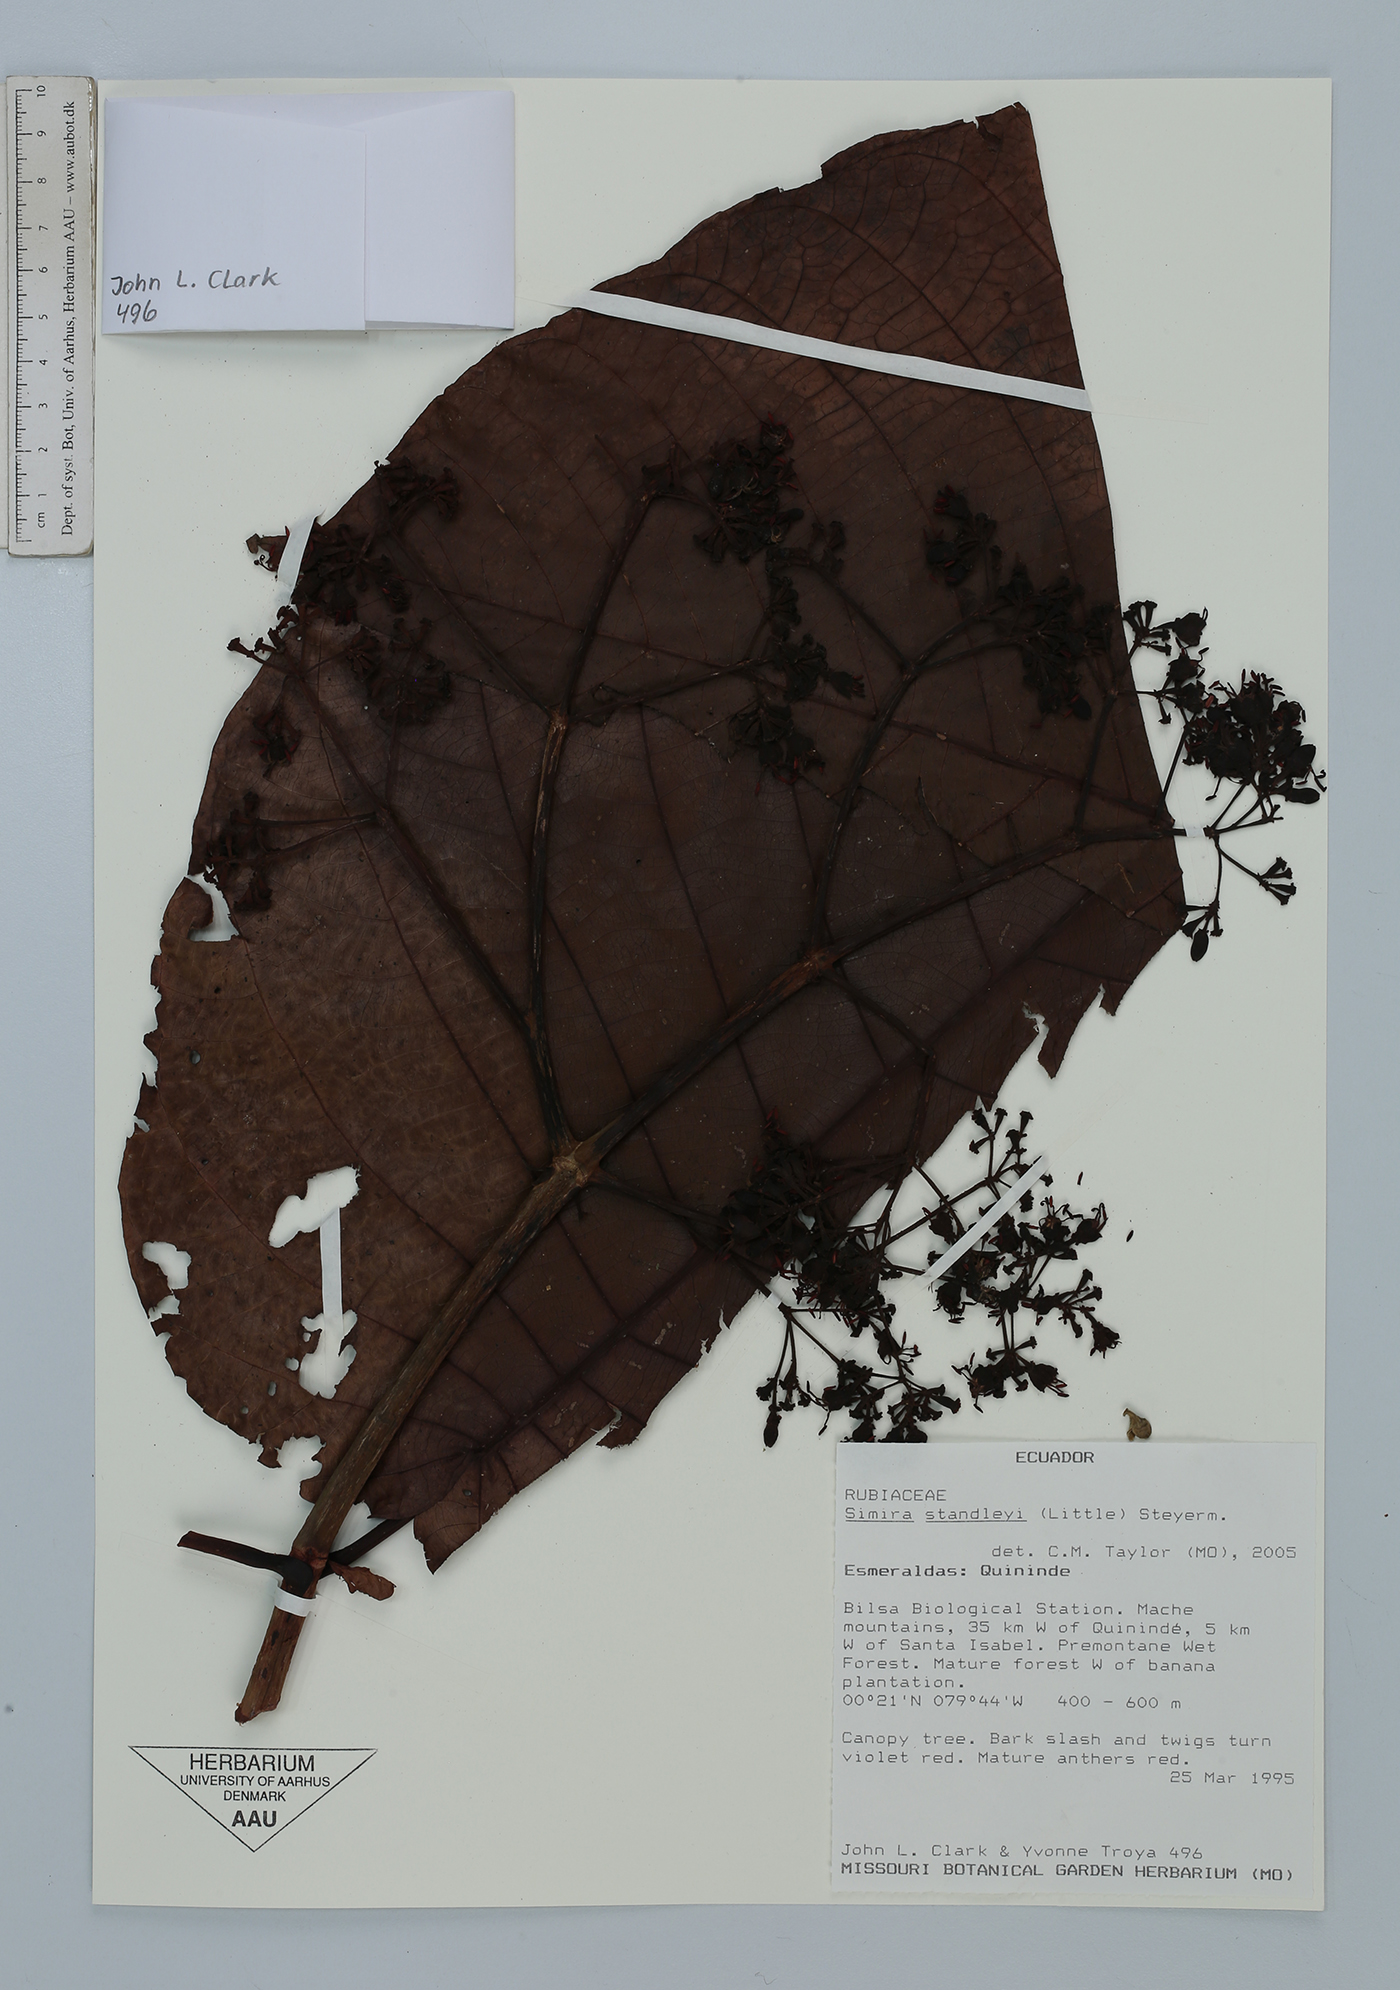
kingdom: Plantae
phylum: Tracheophyta
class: Magnoliopsida
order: Gentianales
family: Rubiaceae
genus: Simira
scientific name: Simira standleyi
